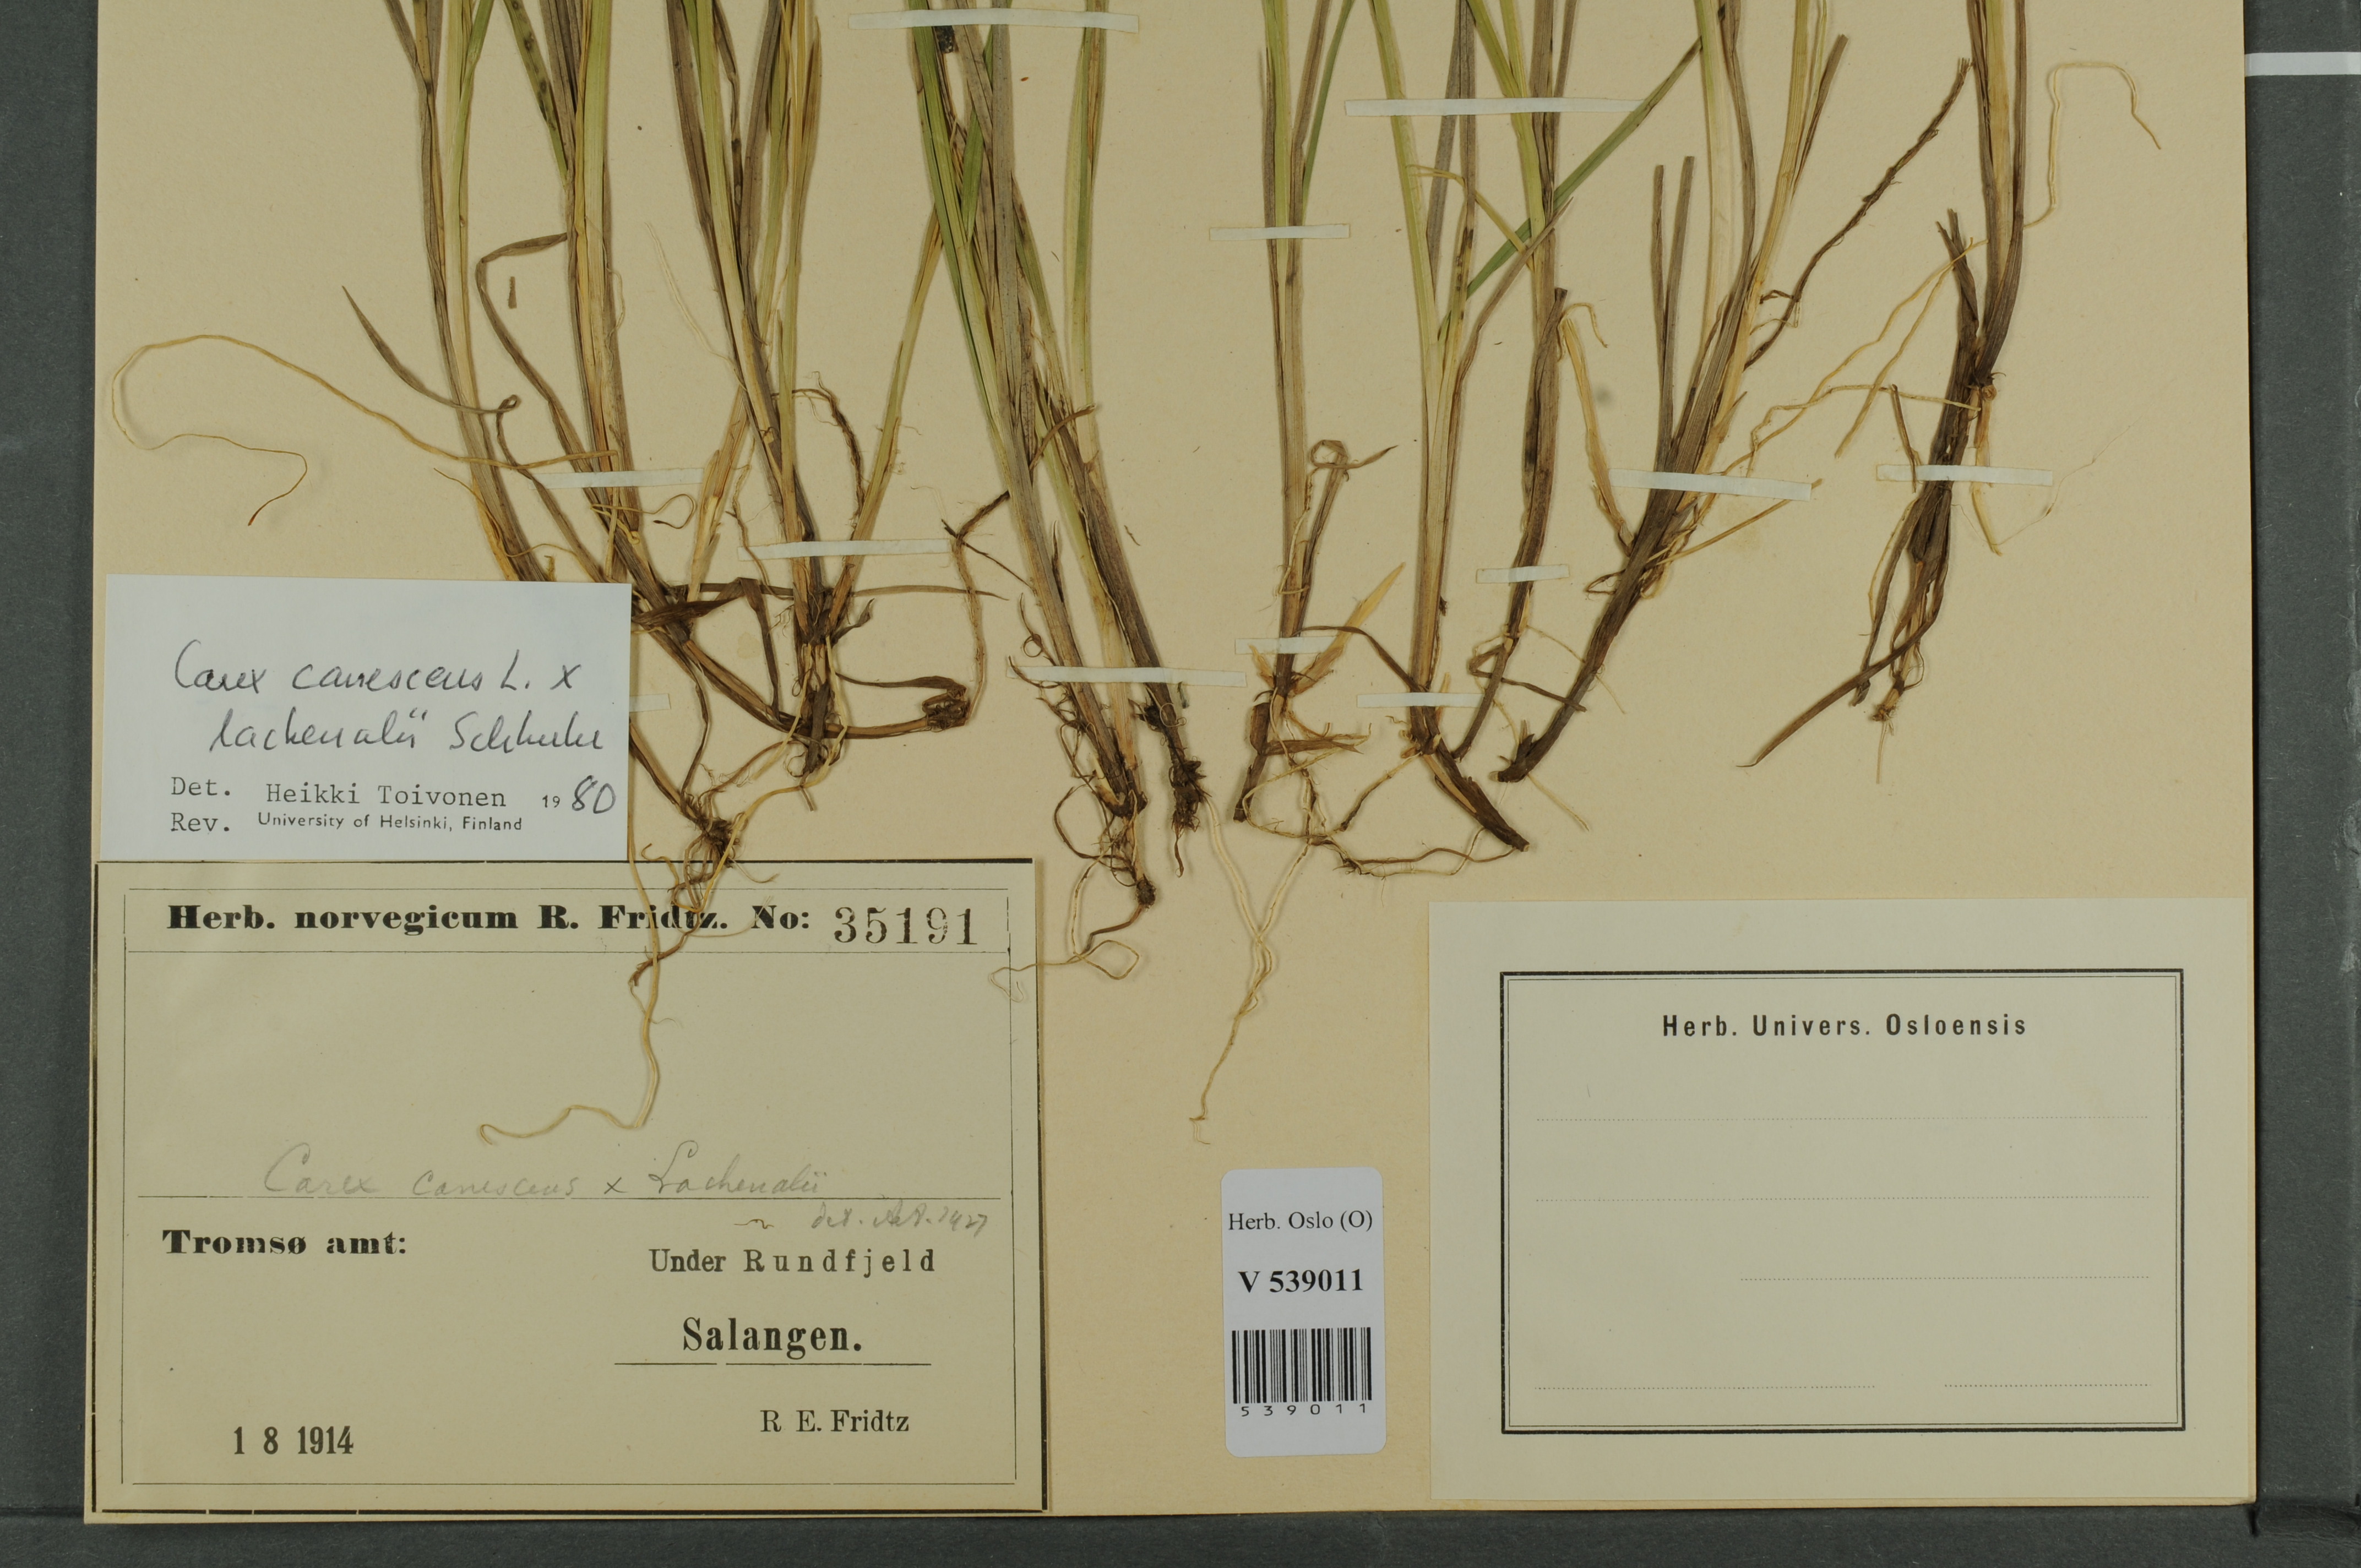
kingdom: Plantae
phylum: Tracheophyta
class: Liliopsida
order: Poales
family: Cyperaceae
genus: Carex
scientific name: Carex
